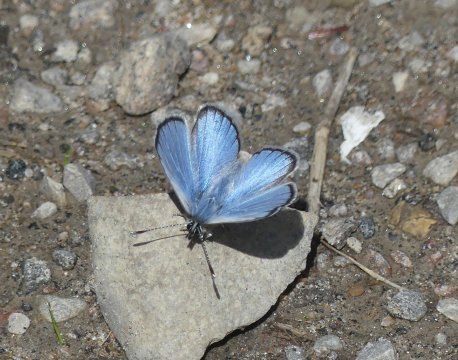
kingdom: Animalia
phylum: Arthropoda
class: Insecta
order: Lepidoptera
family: Lycaenidae
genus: Glaucopsyche
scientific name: Glaucopsyche lygdamus
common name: Silvery Blue
